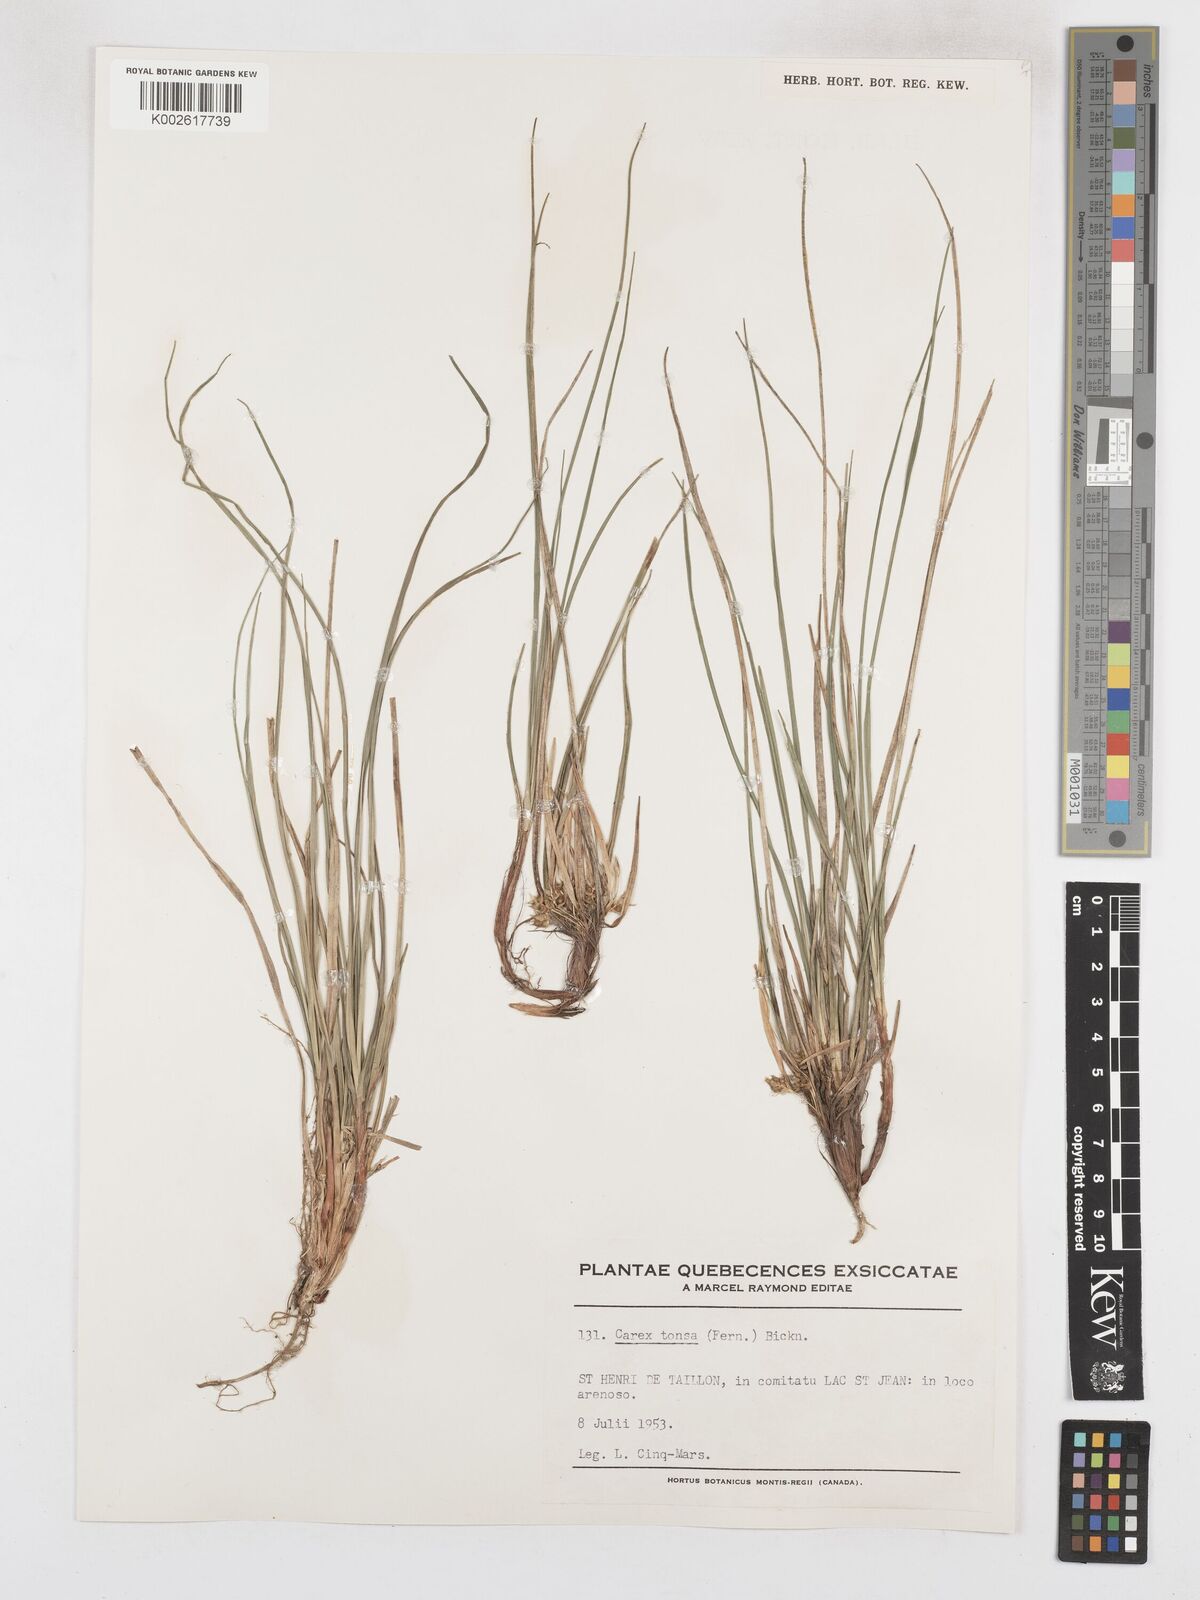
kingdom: Plantae
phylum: Tracheophyta
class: Liliopsida
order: Poales
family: Cyperaceae
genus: Carex
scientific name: Carex tonsa
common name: Bald sedge
